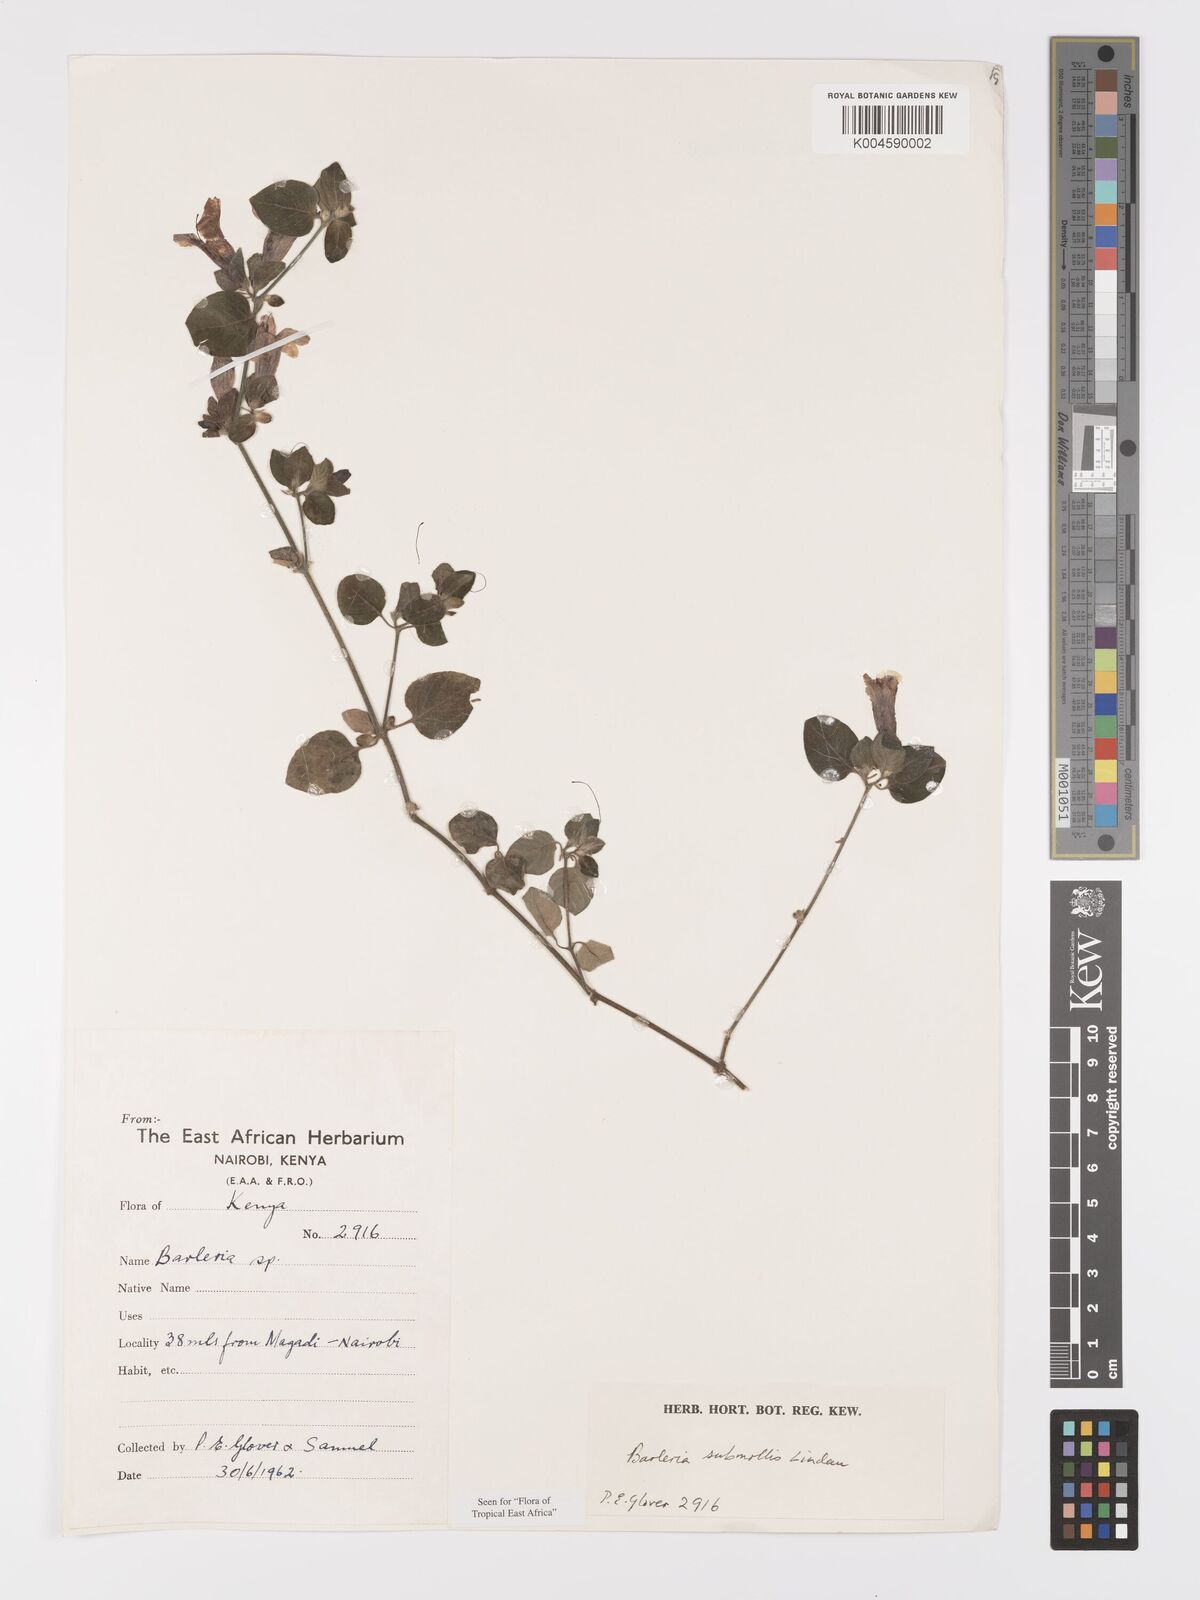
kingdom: Plantae
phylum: Tracheophyta
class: Magnoliopsida
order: Lamiales
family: Acanthaceae
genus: Barleria
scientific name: Barleria submollis
